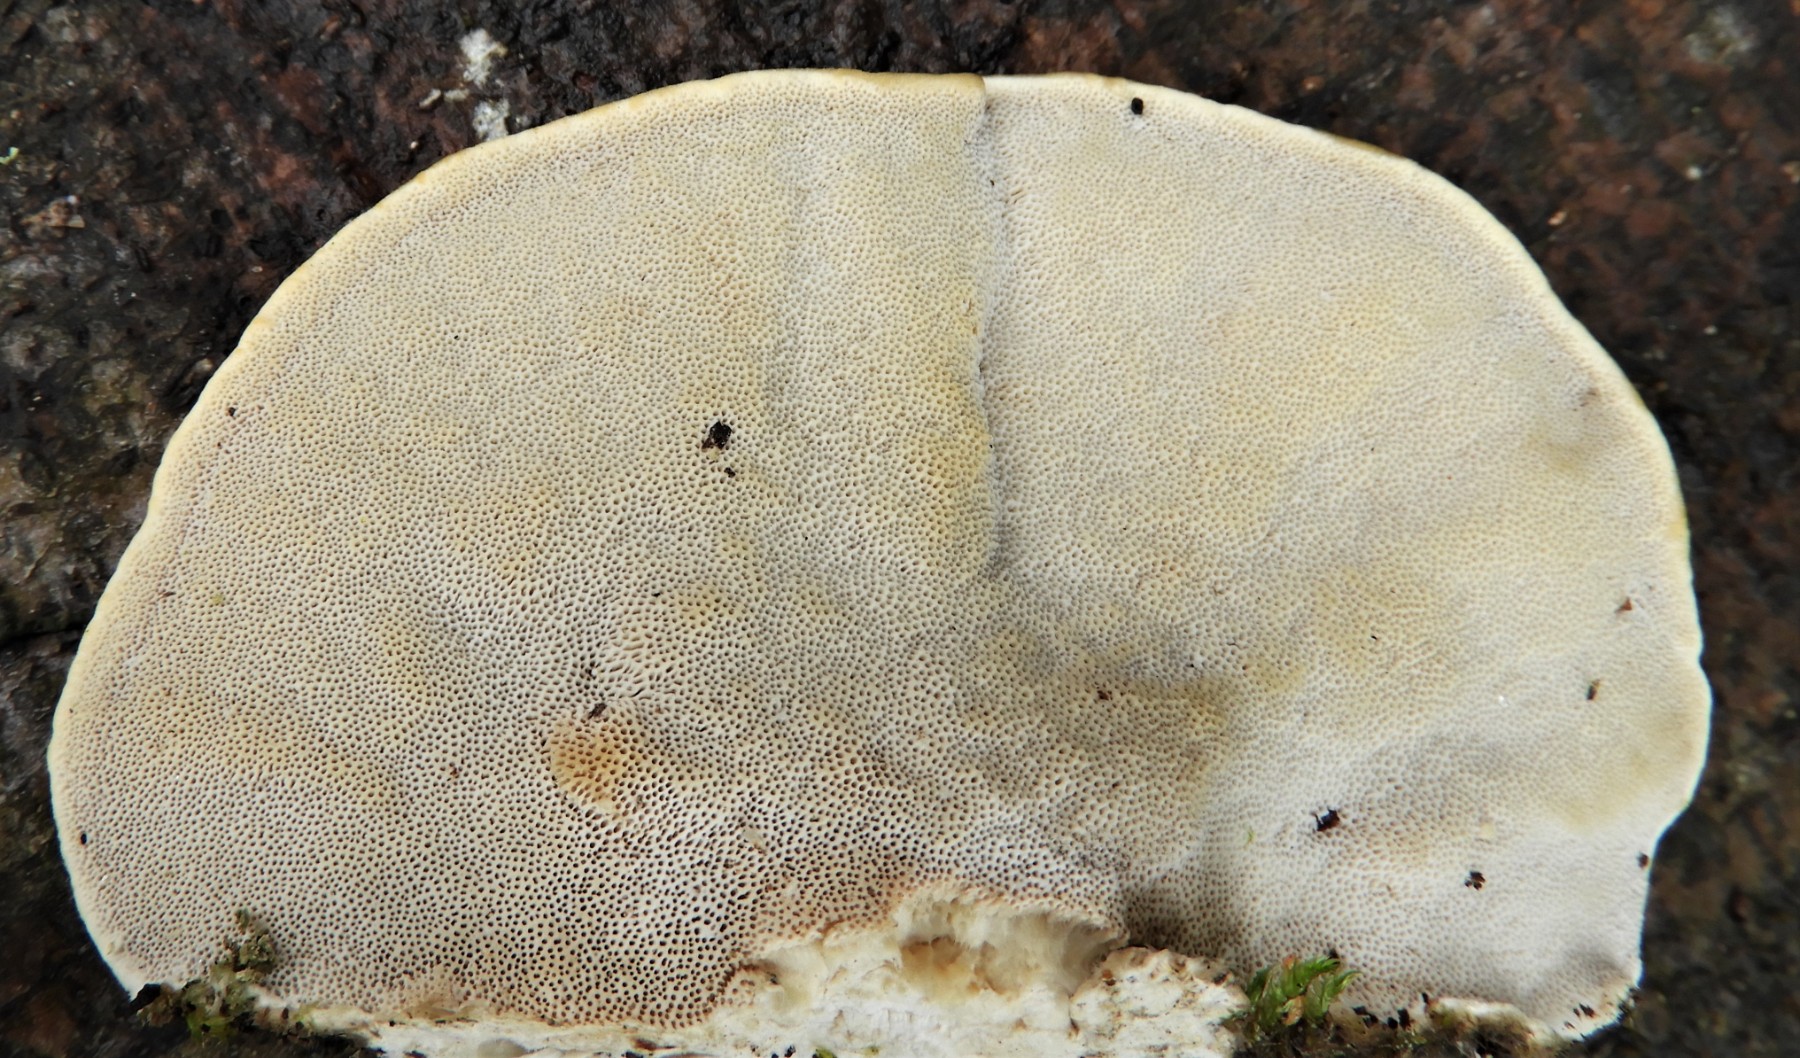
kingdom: Fungi
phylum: Basidiomycota
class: Agaricomycetes
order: Polyporales
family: Polyporaceae
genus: Trametes
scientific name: Trametes hirsuta
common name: håret læderporesvamp
